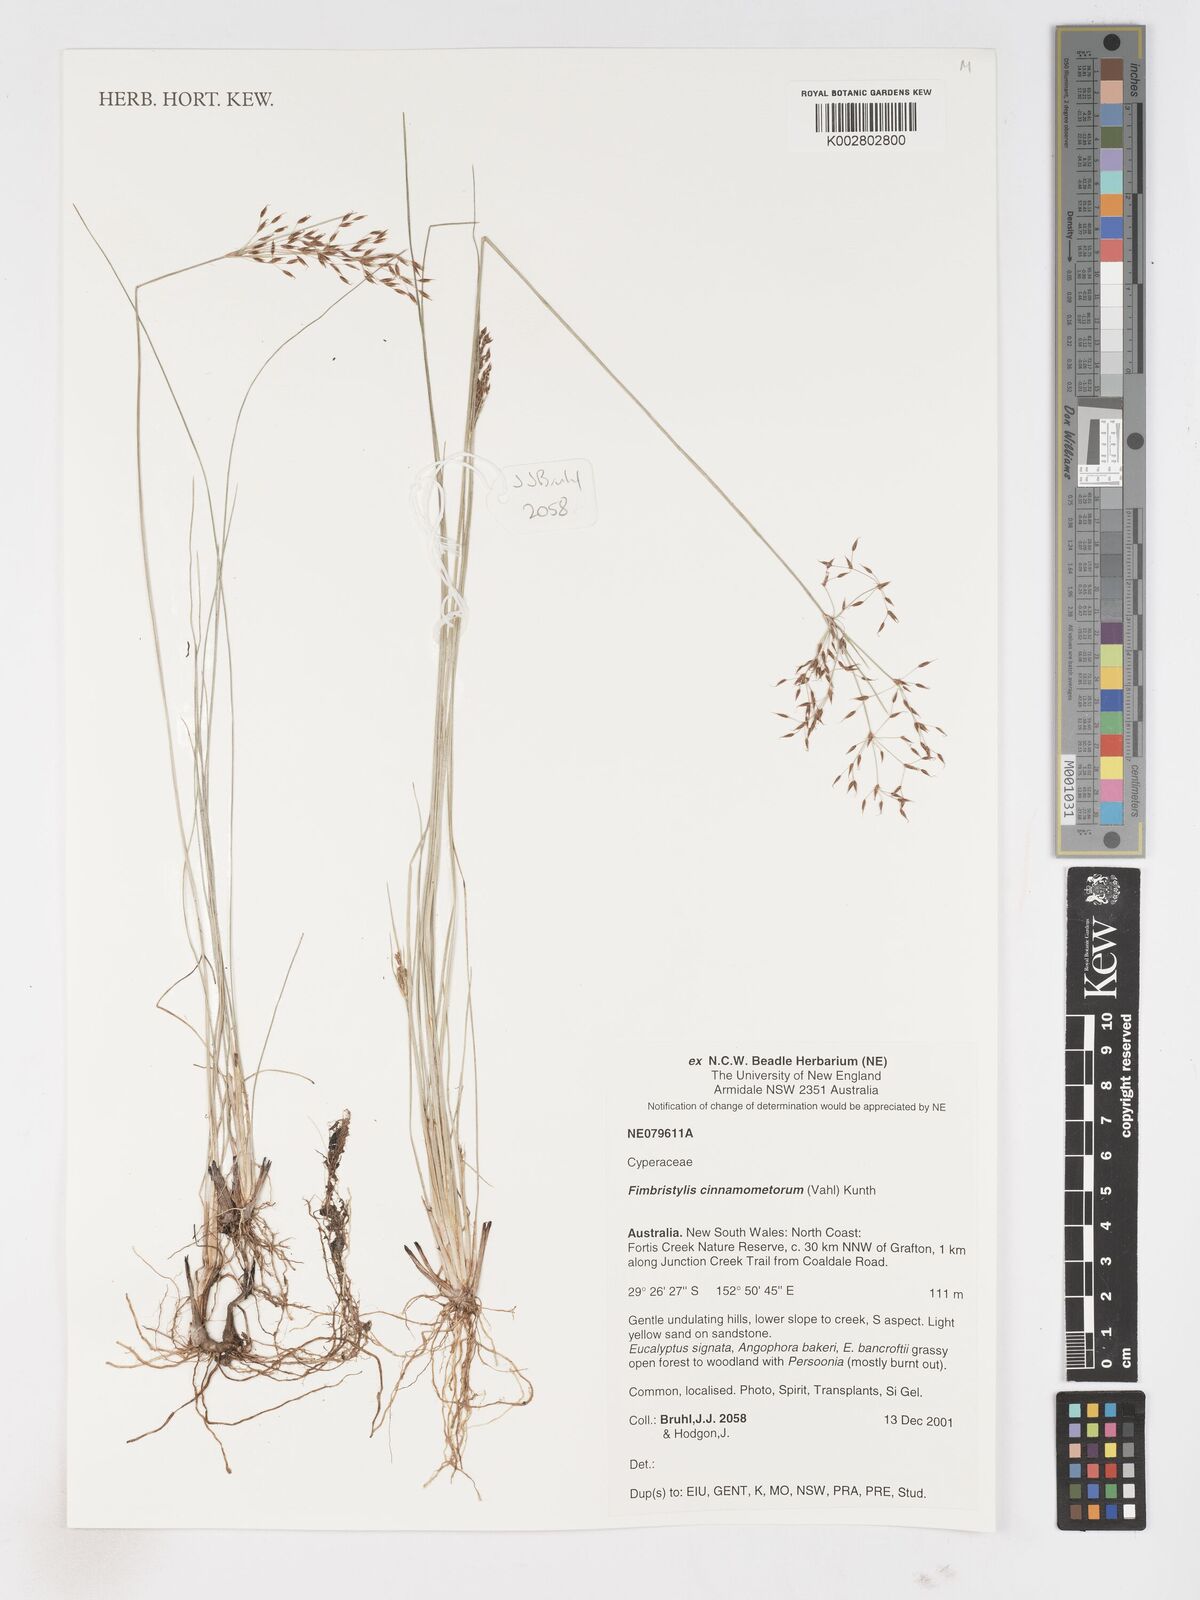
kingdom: Plantae
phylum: Tracheophyta
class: Liliopsida
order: Poales
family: Cyperaceae
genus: Fimbristylis
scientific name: Fimbristylis cinnamometorum
